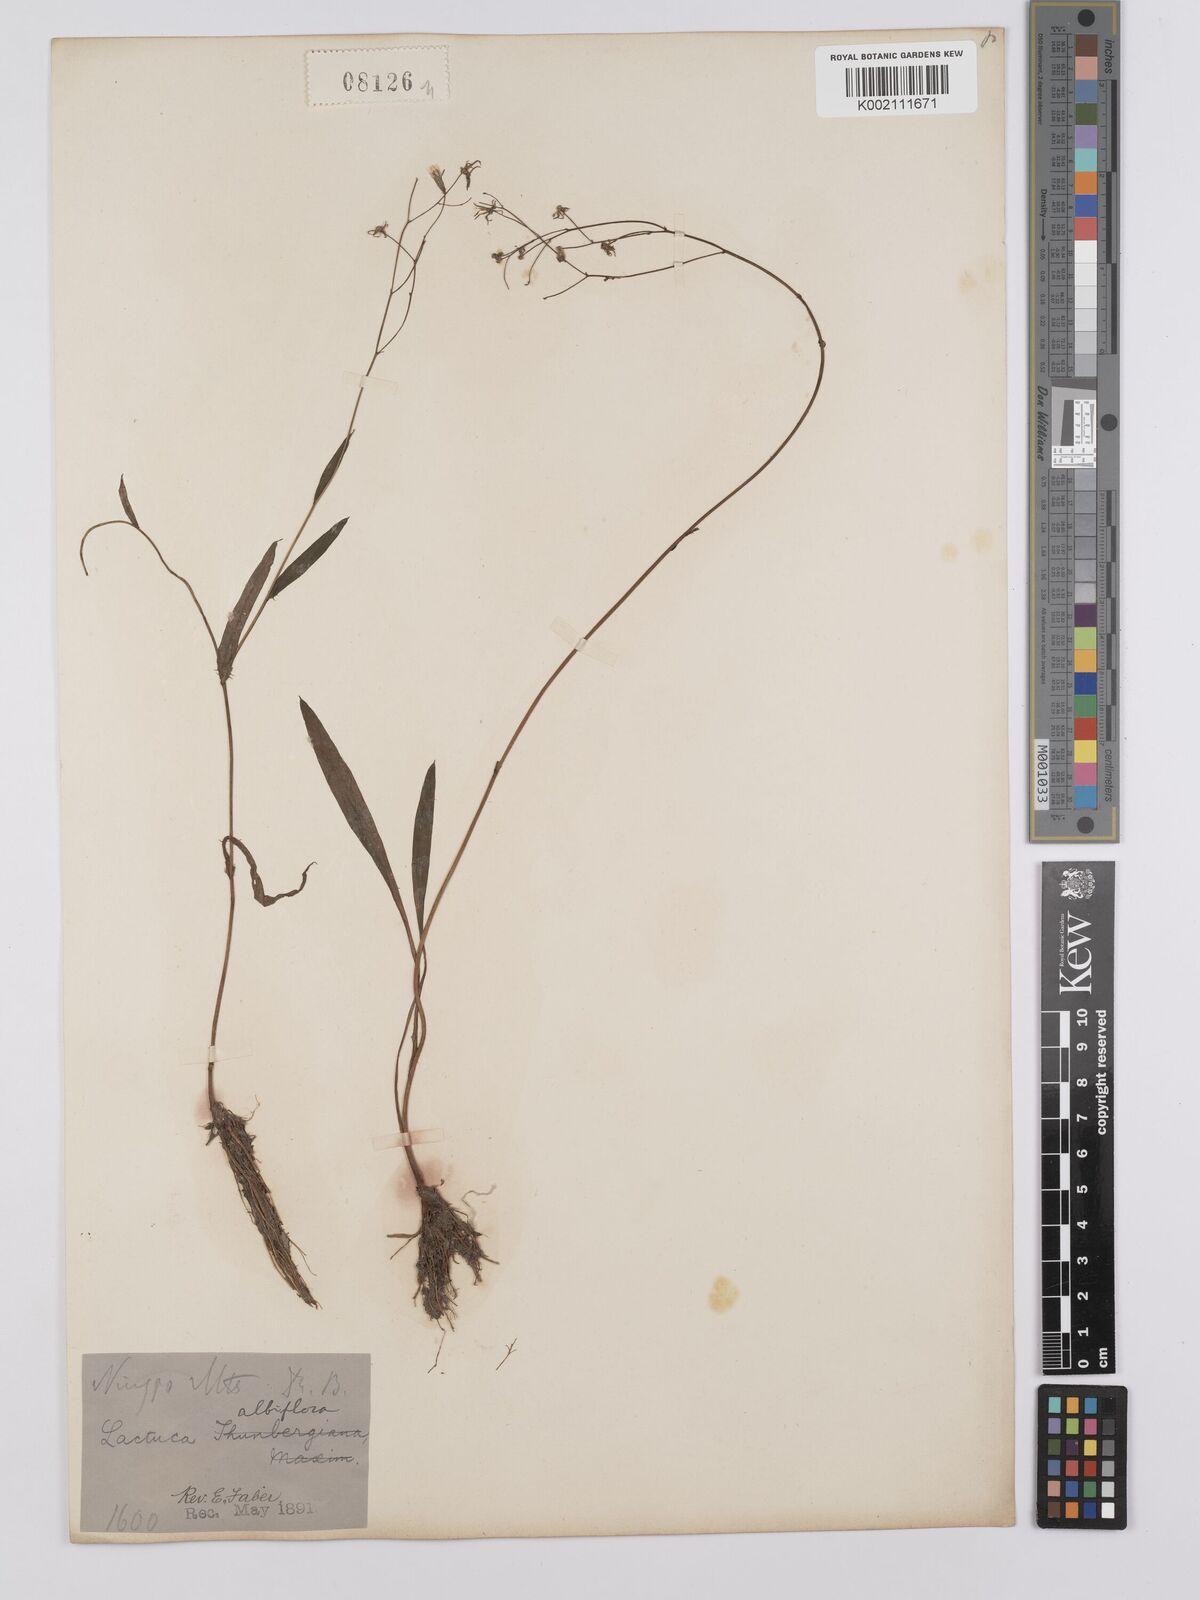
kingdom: Plantae
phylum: Tracheophyta
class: Magnoliopsida
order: Asterales
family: Asteraceae
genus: Ixeridium
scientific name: Ixeridium dentatum
